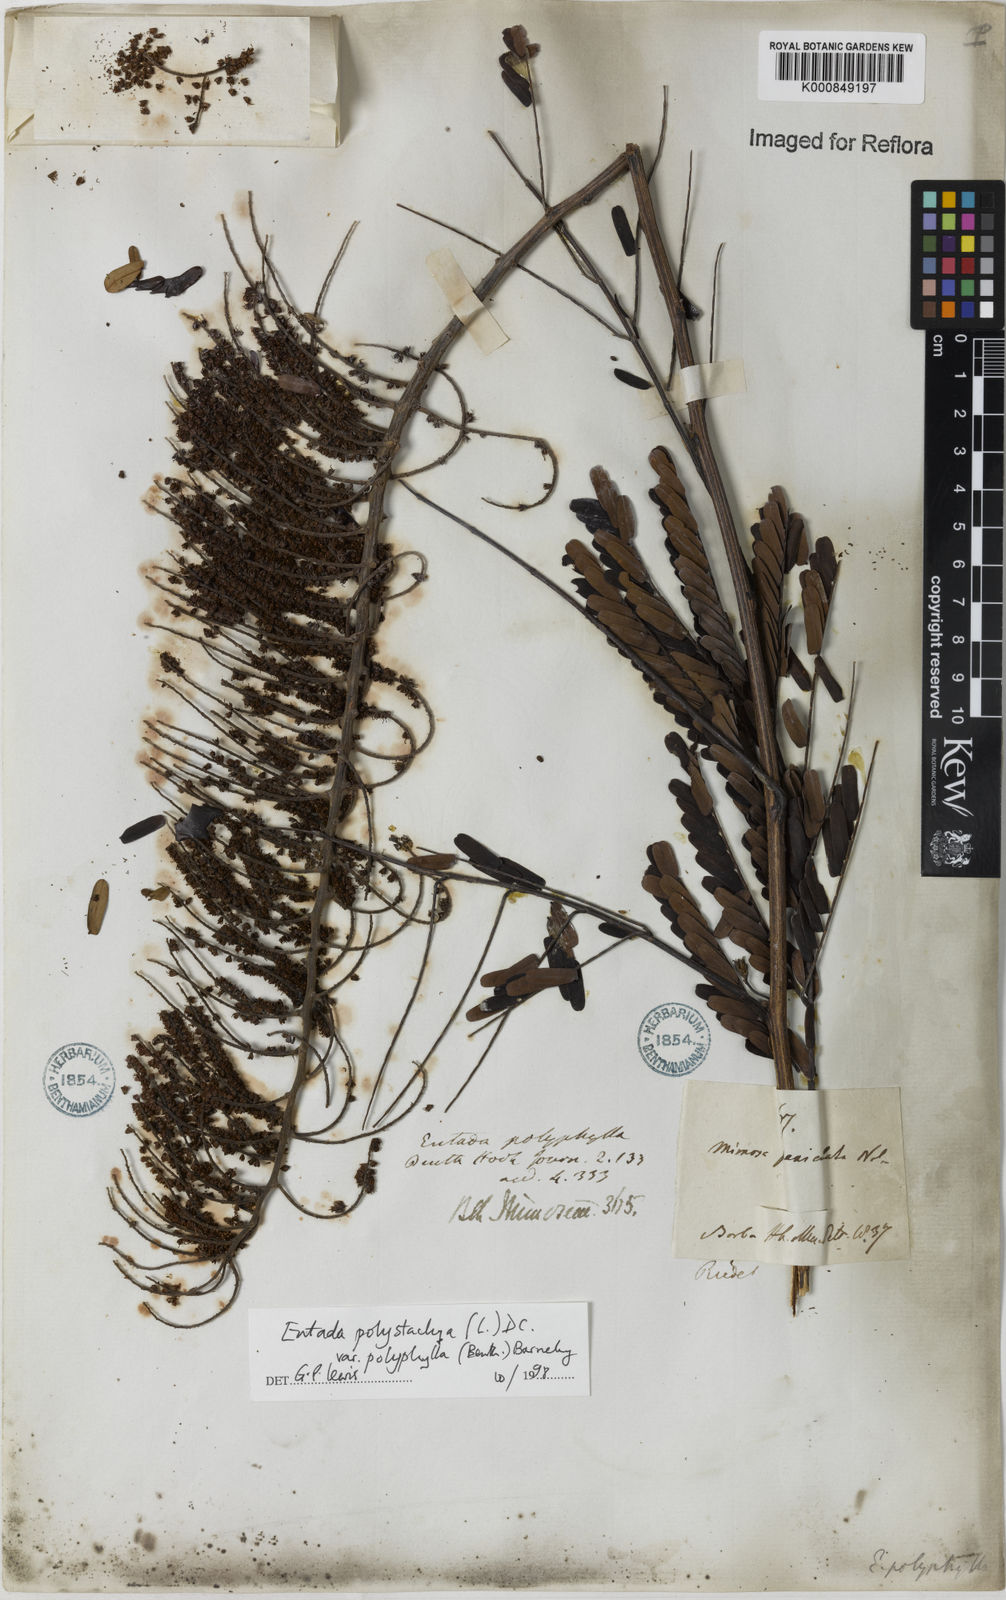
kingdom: Plantae
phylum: Tracheophyta
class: Magnoliopsida
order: Fabales
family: Fabaceae
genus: Entada
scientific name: Entada polyphylla
